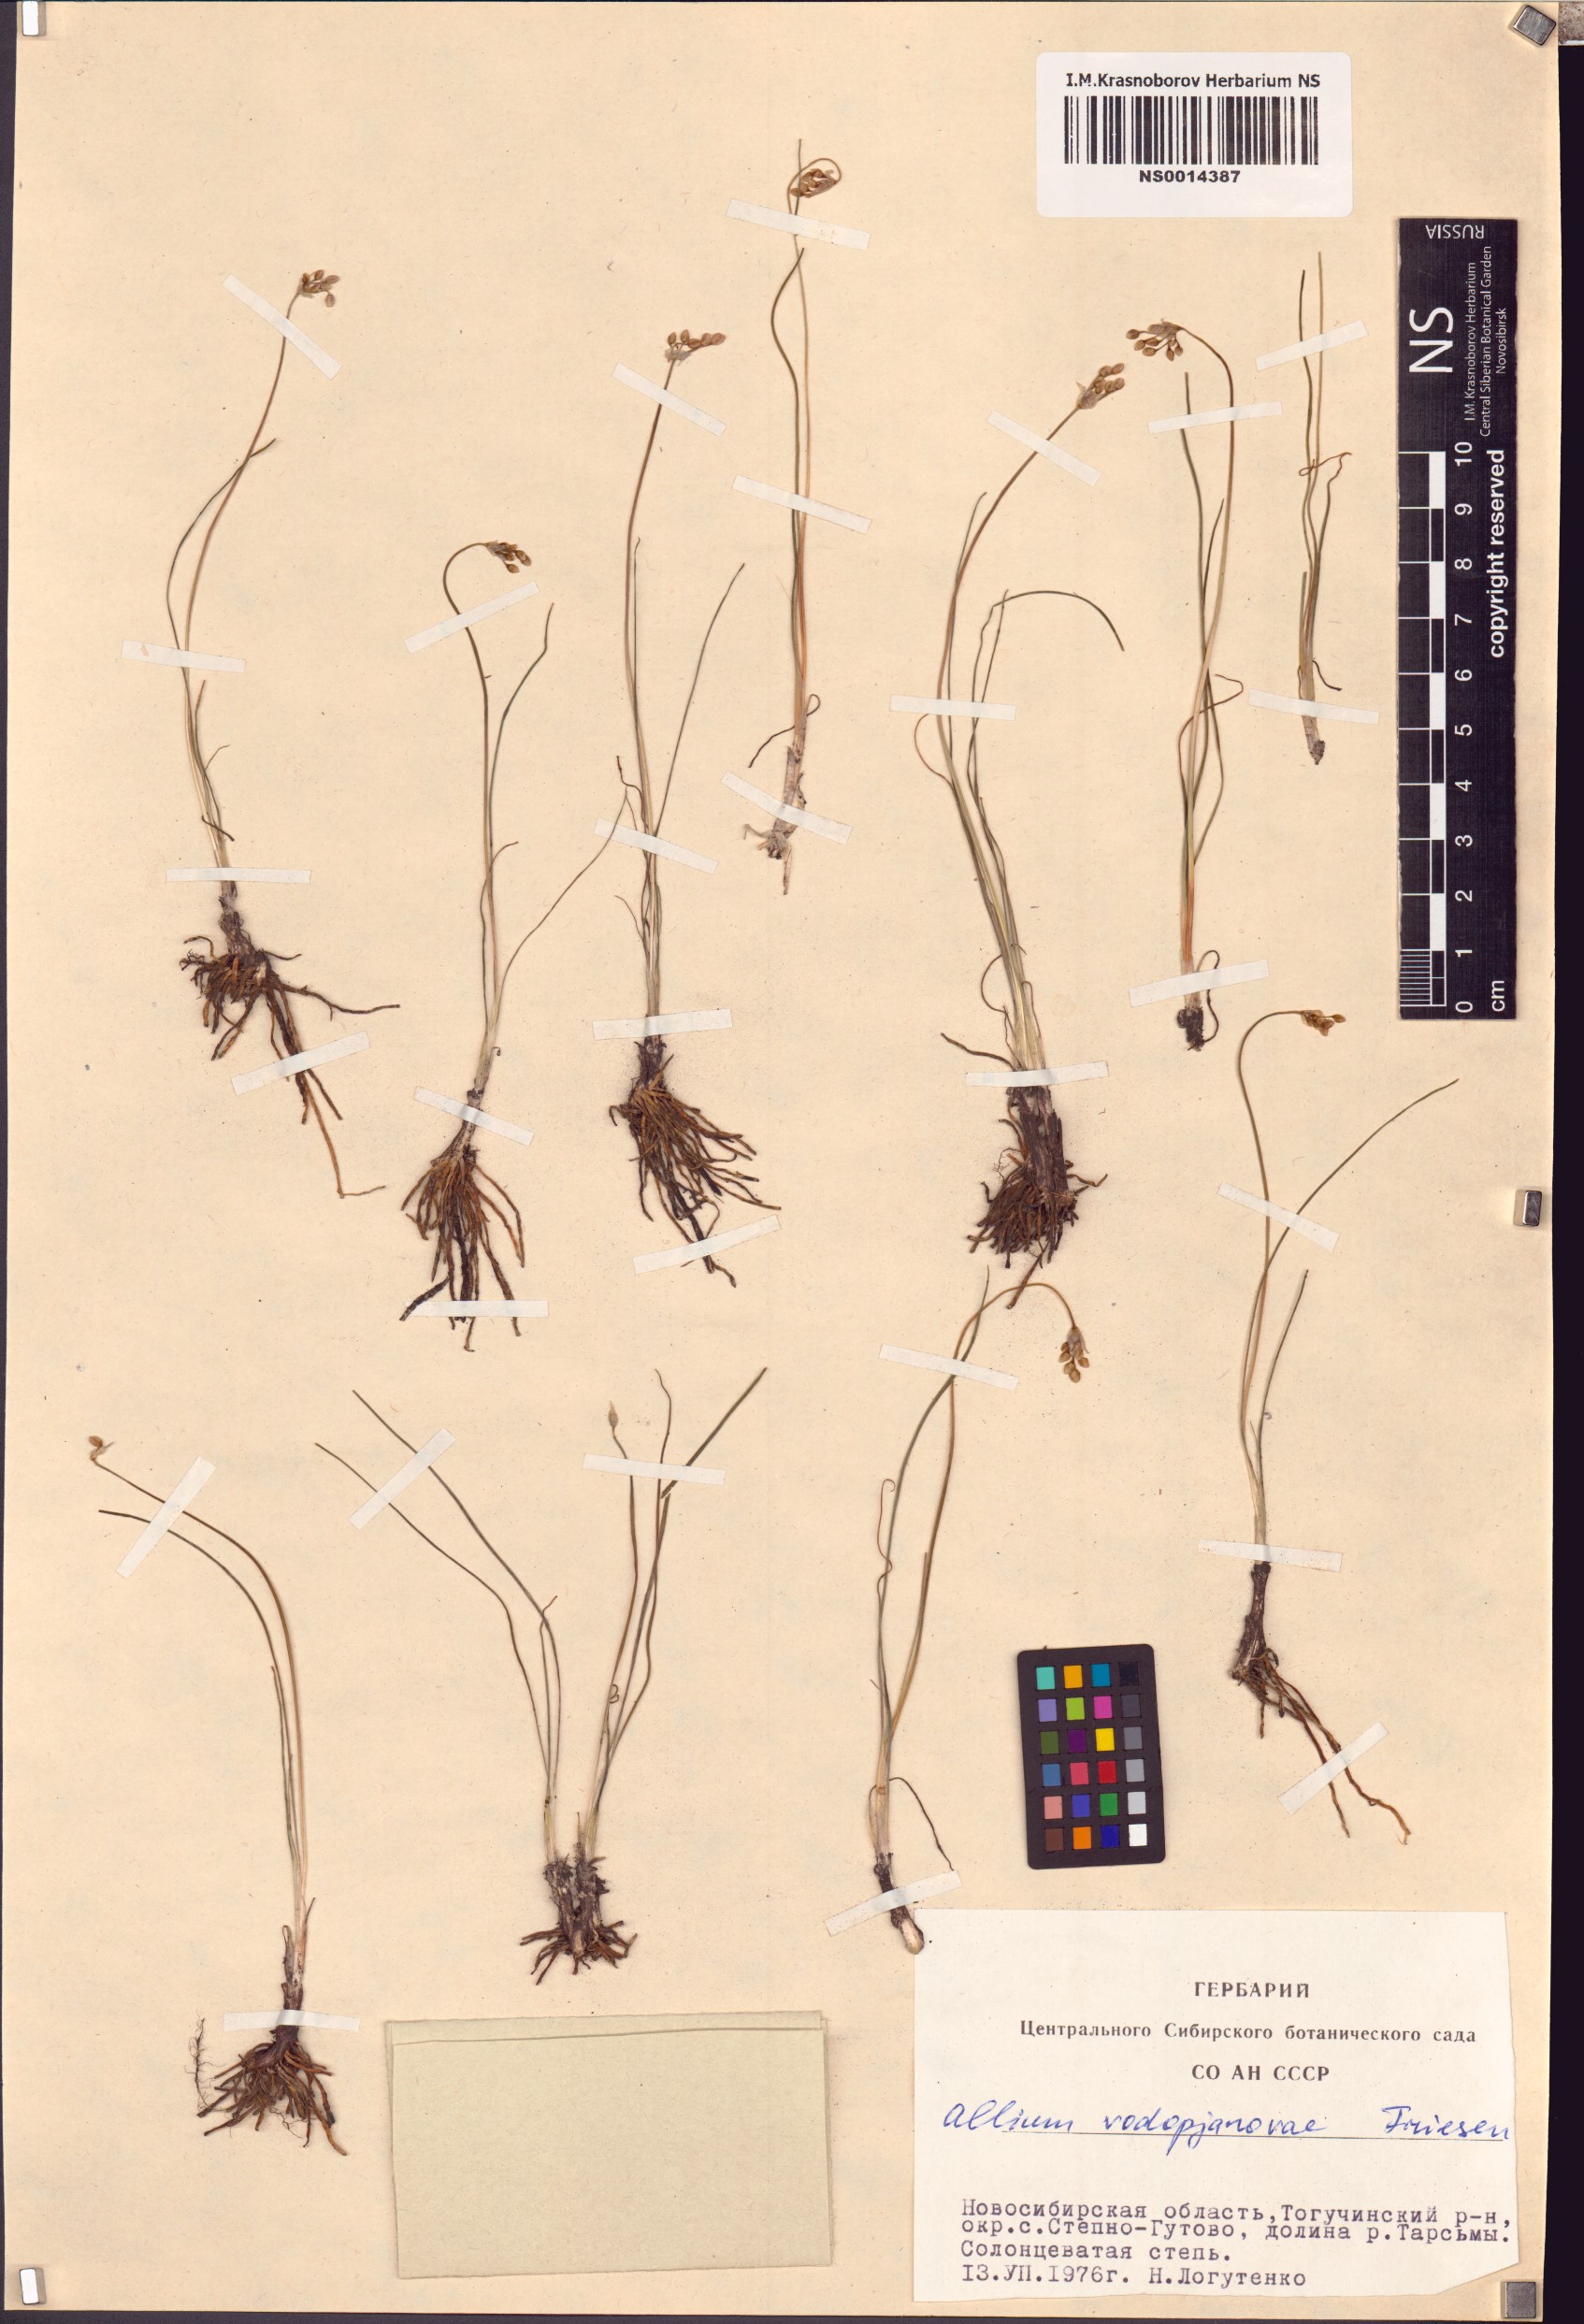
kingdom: Plantae
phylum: Tracheophyta
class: Liliopsida
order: Asparagales
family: Amaryllidaceae
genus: Allium
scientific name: Allium vodopjanovae
